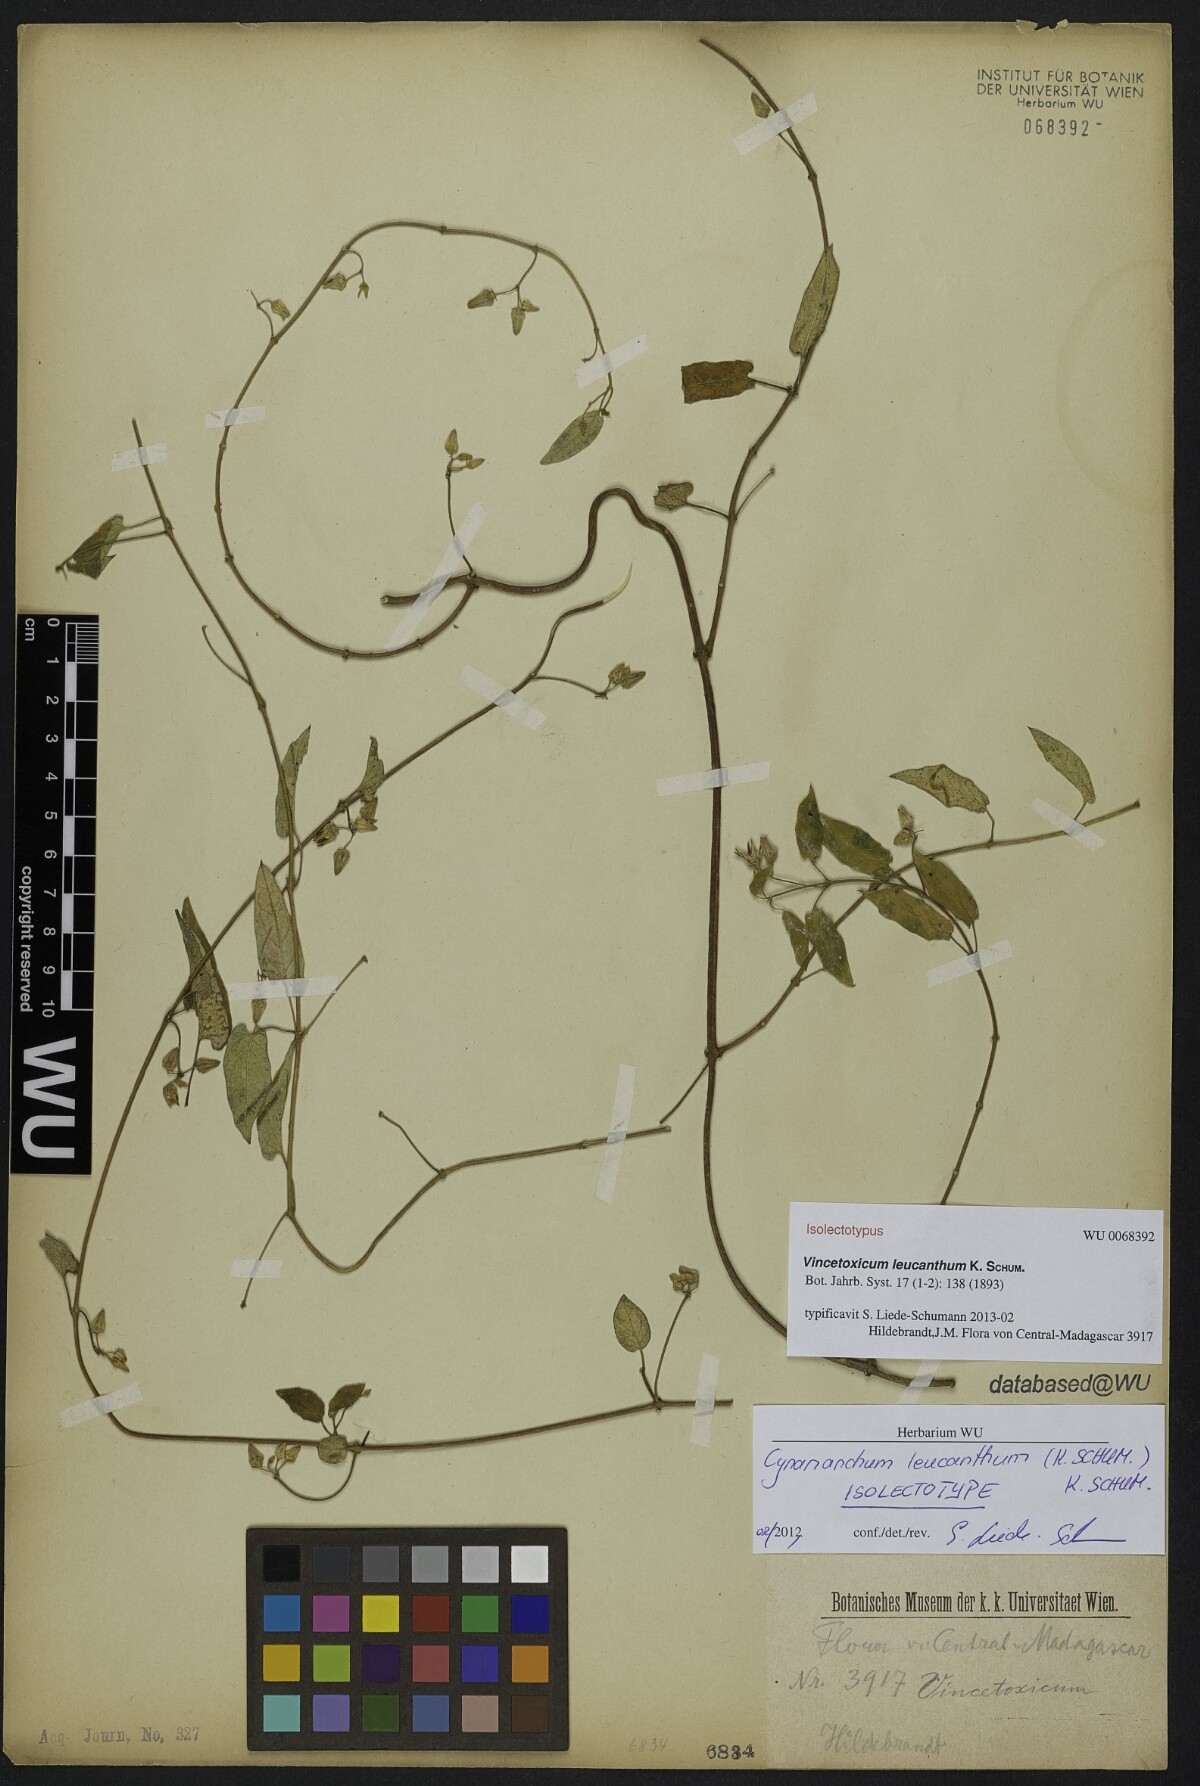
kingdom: Plantae
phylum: Tracheophyta
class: Magnoliopsida
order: Gentianales
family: Apocynaceae
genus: Cynanchum
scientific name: Cynanchum leucanthum
